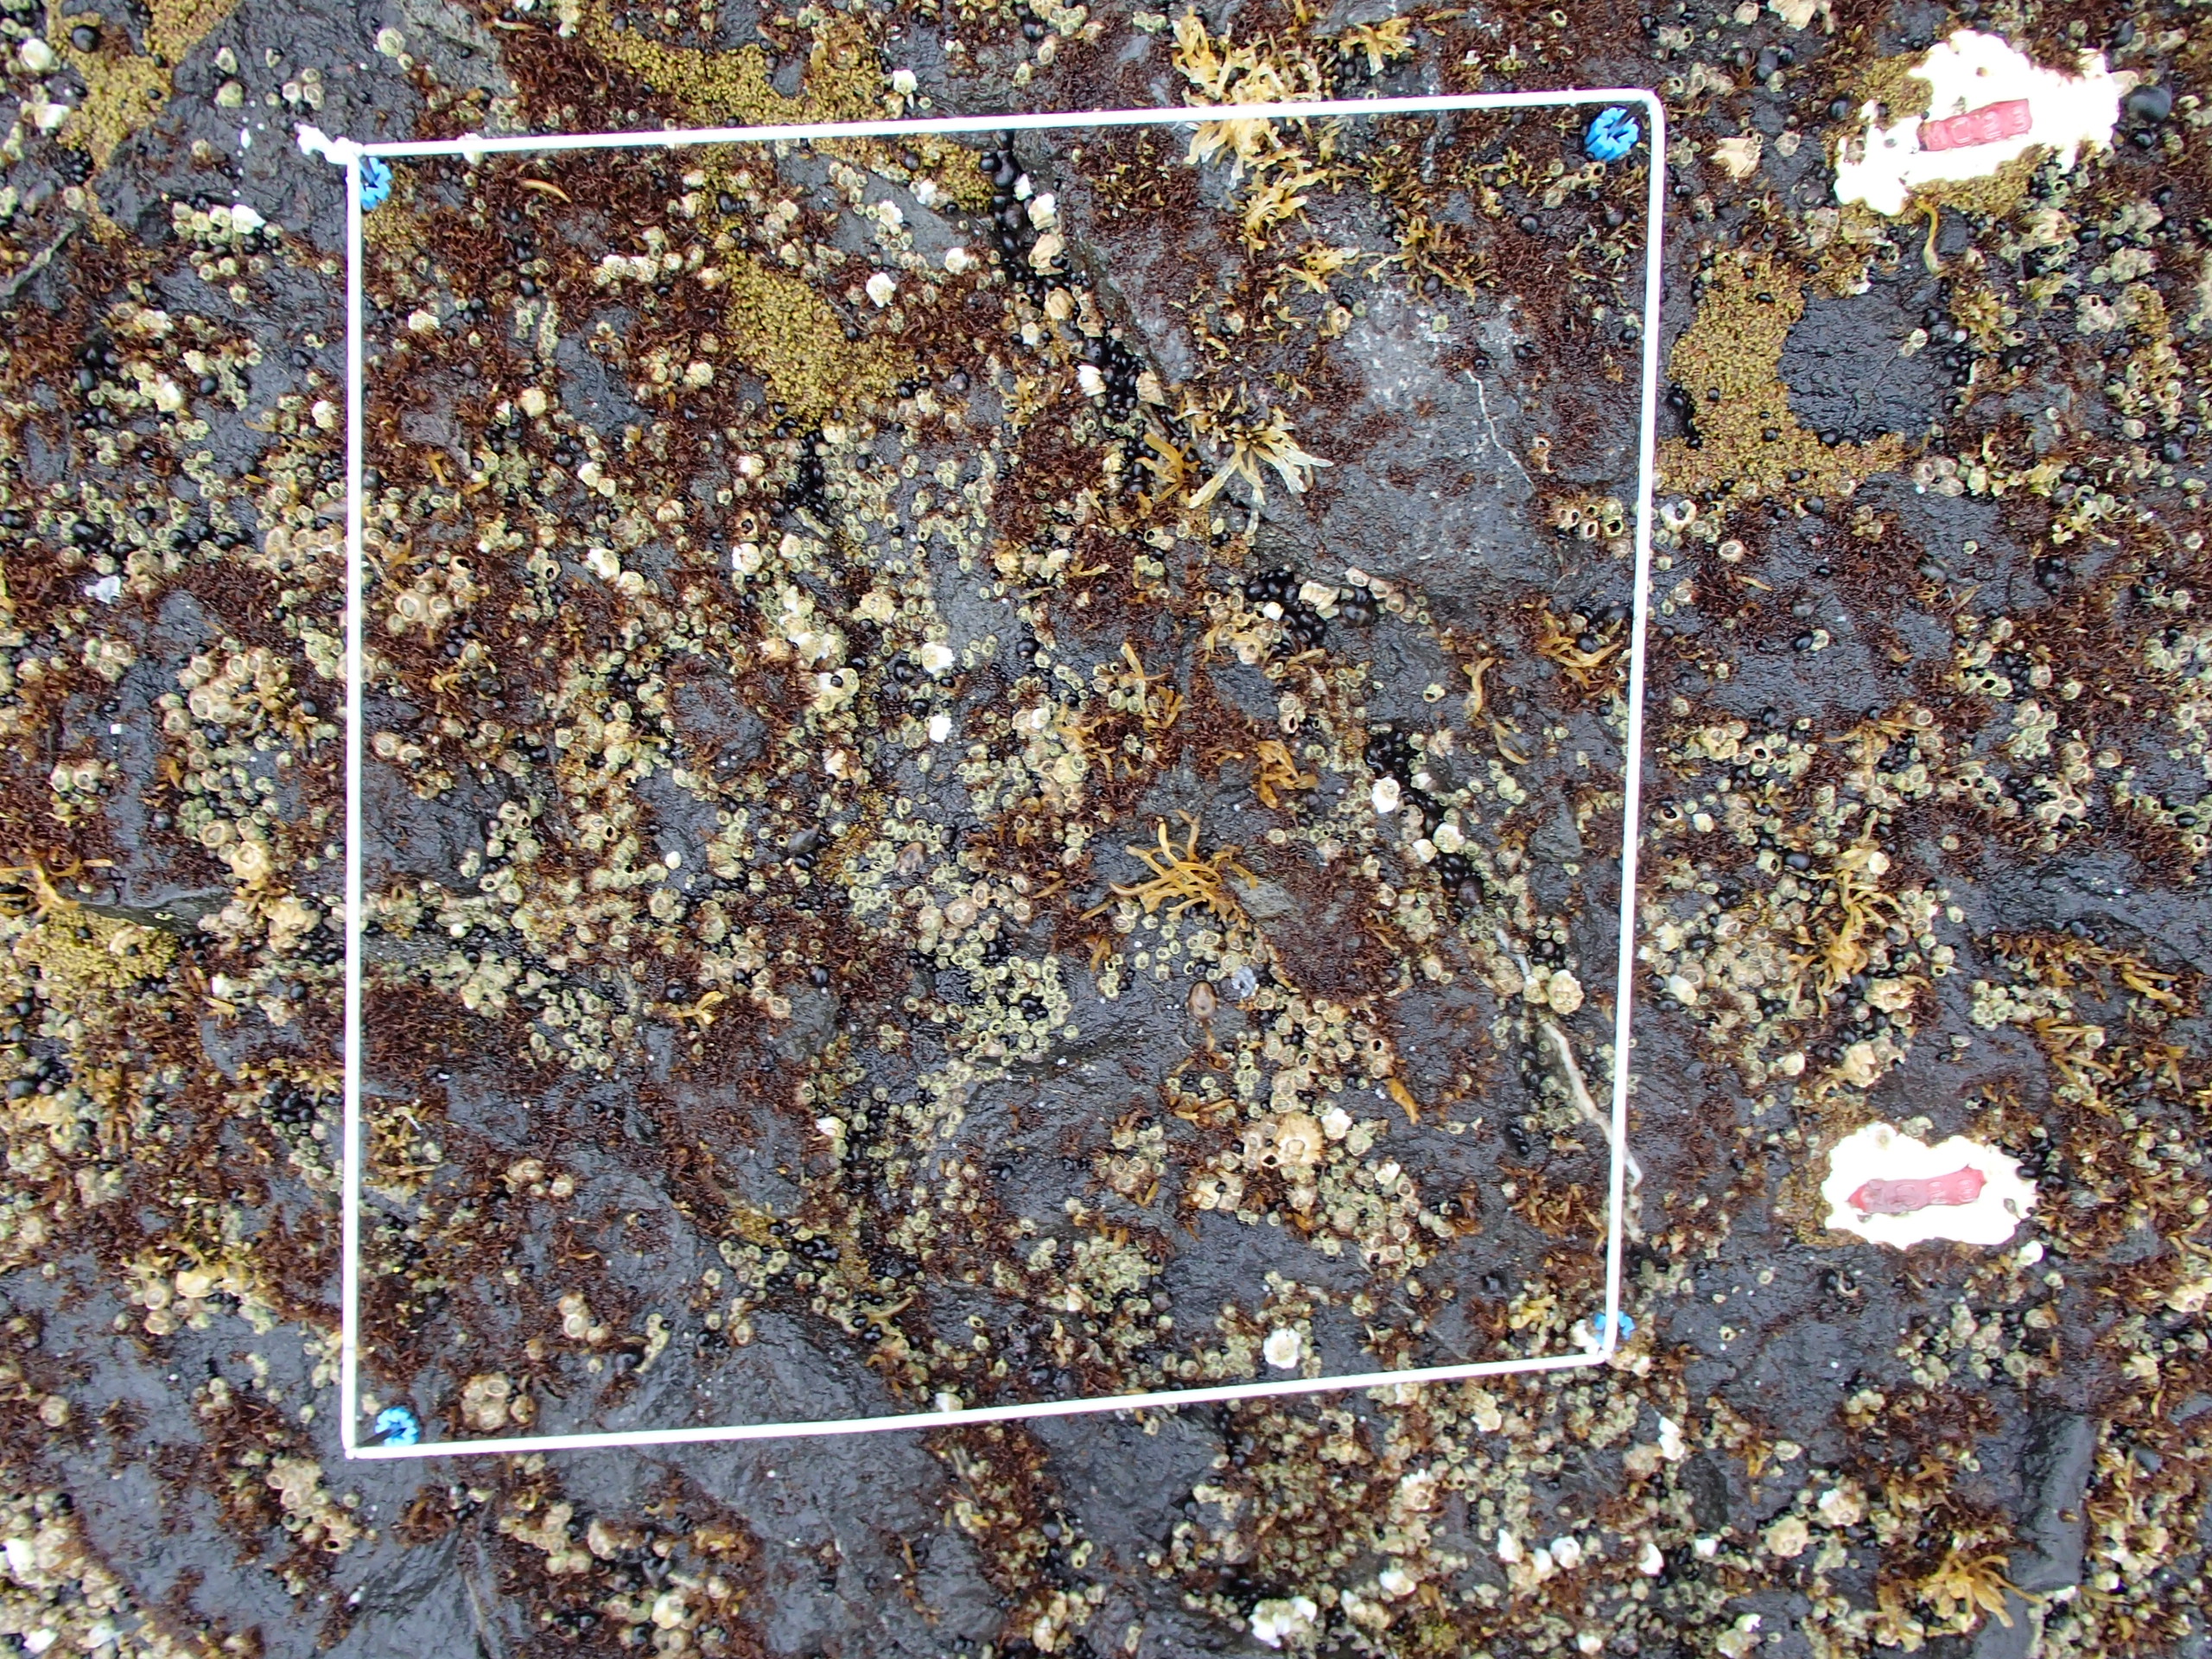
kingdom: Plantae
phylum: Rhodophyta
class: Florideophyceae
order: Gigartinales
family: Endocladiaceae
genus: Gloiopeltis
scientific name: Gloiopeltis furcata
